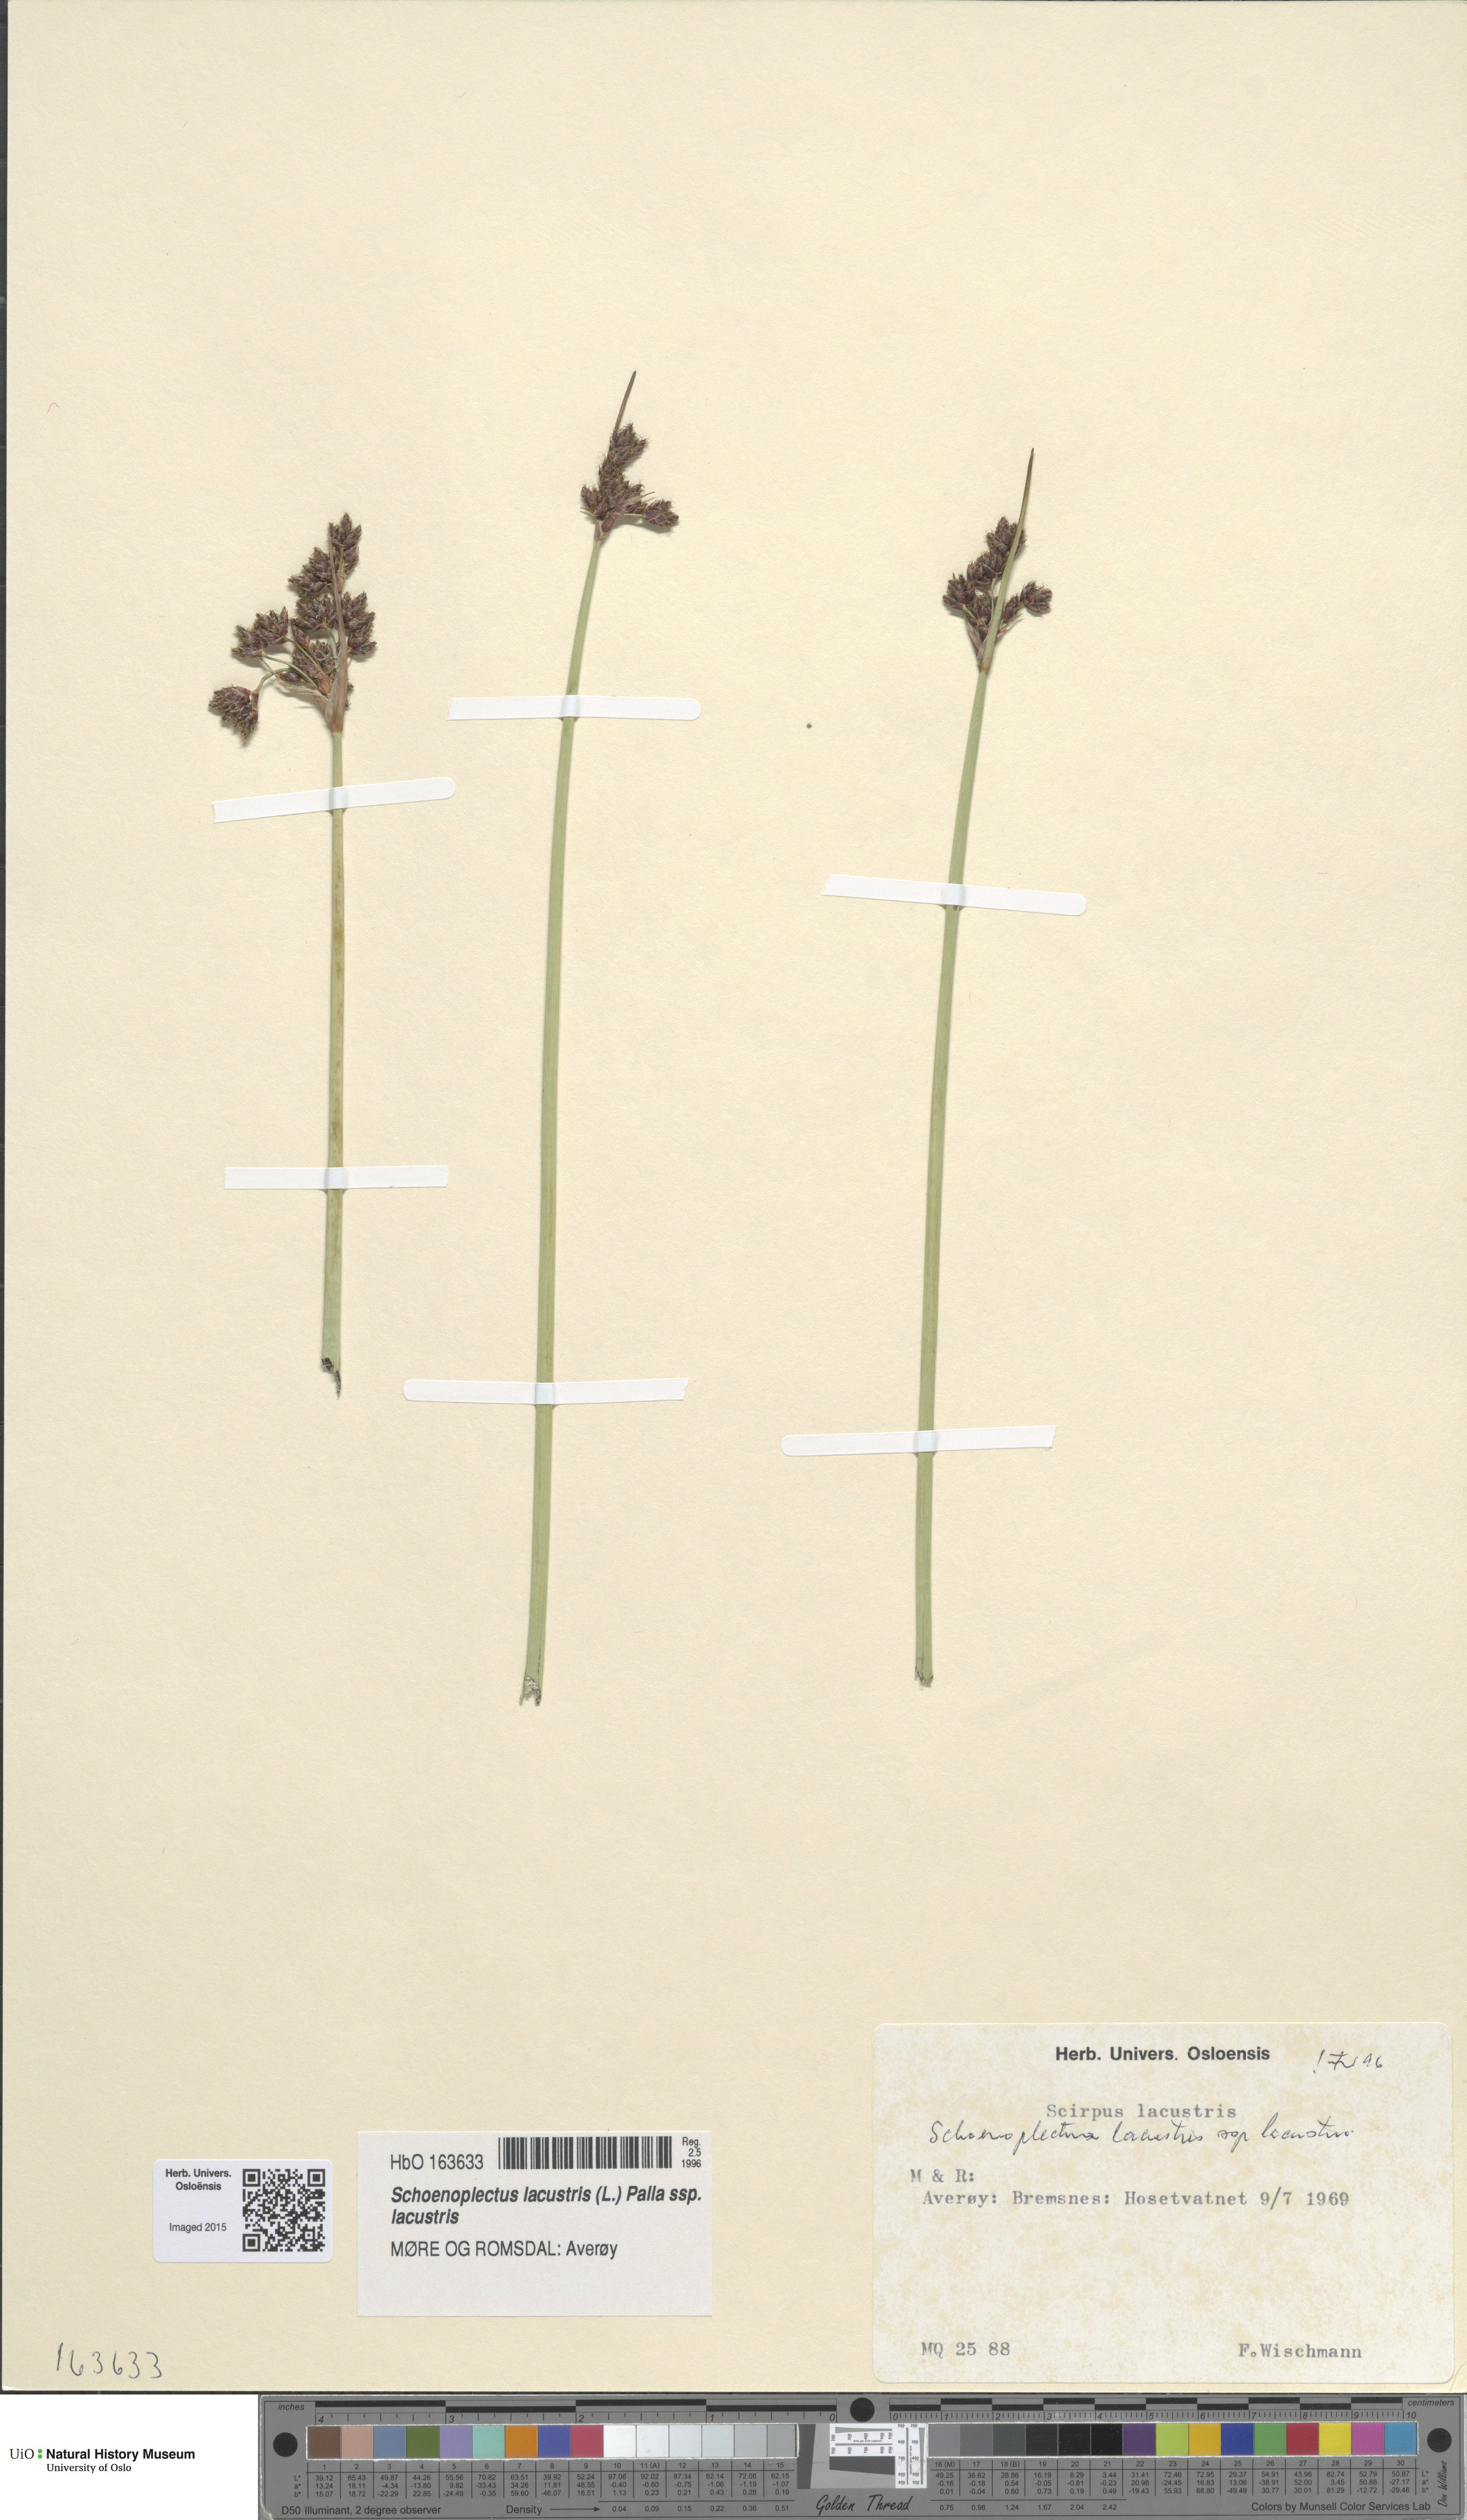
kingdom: Plantae
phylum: Tracheophyta
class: Liliopsida
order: Poales
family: Cyperaceae
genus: Schoenoplectus
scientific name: Schoenoplectus lacustris
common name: Common club-rush
